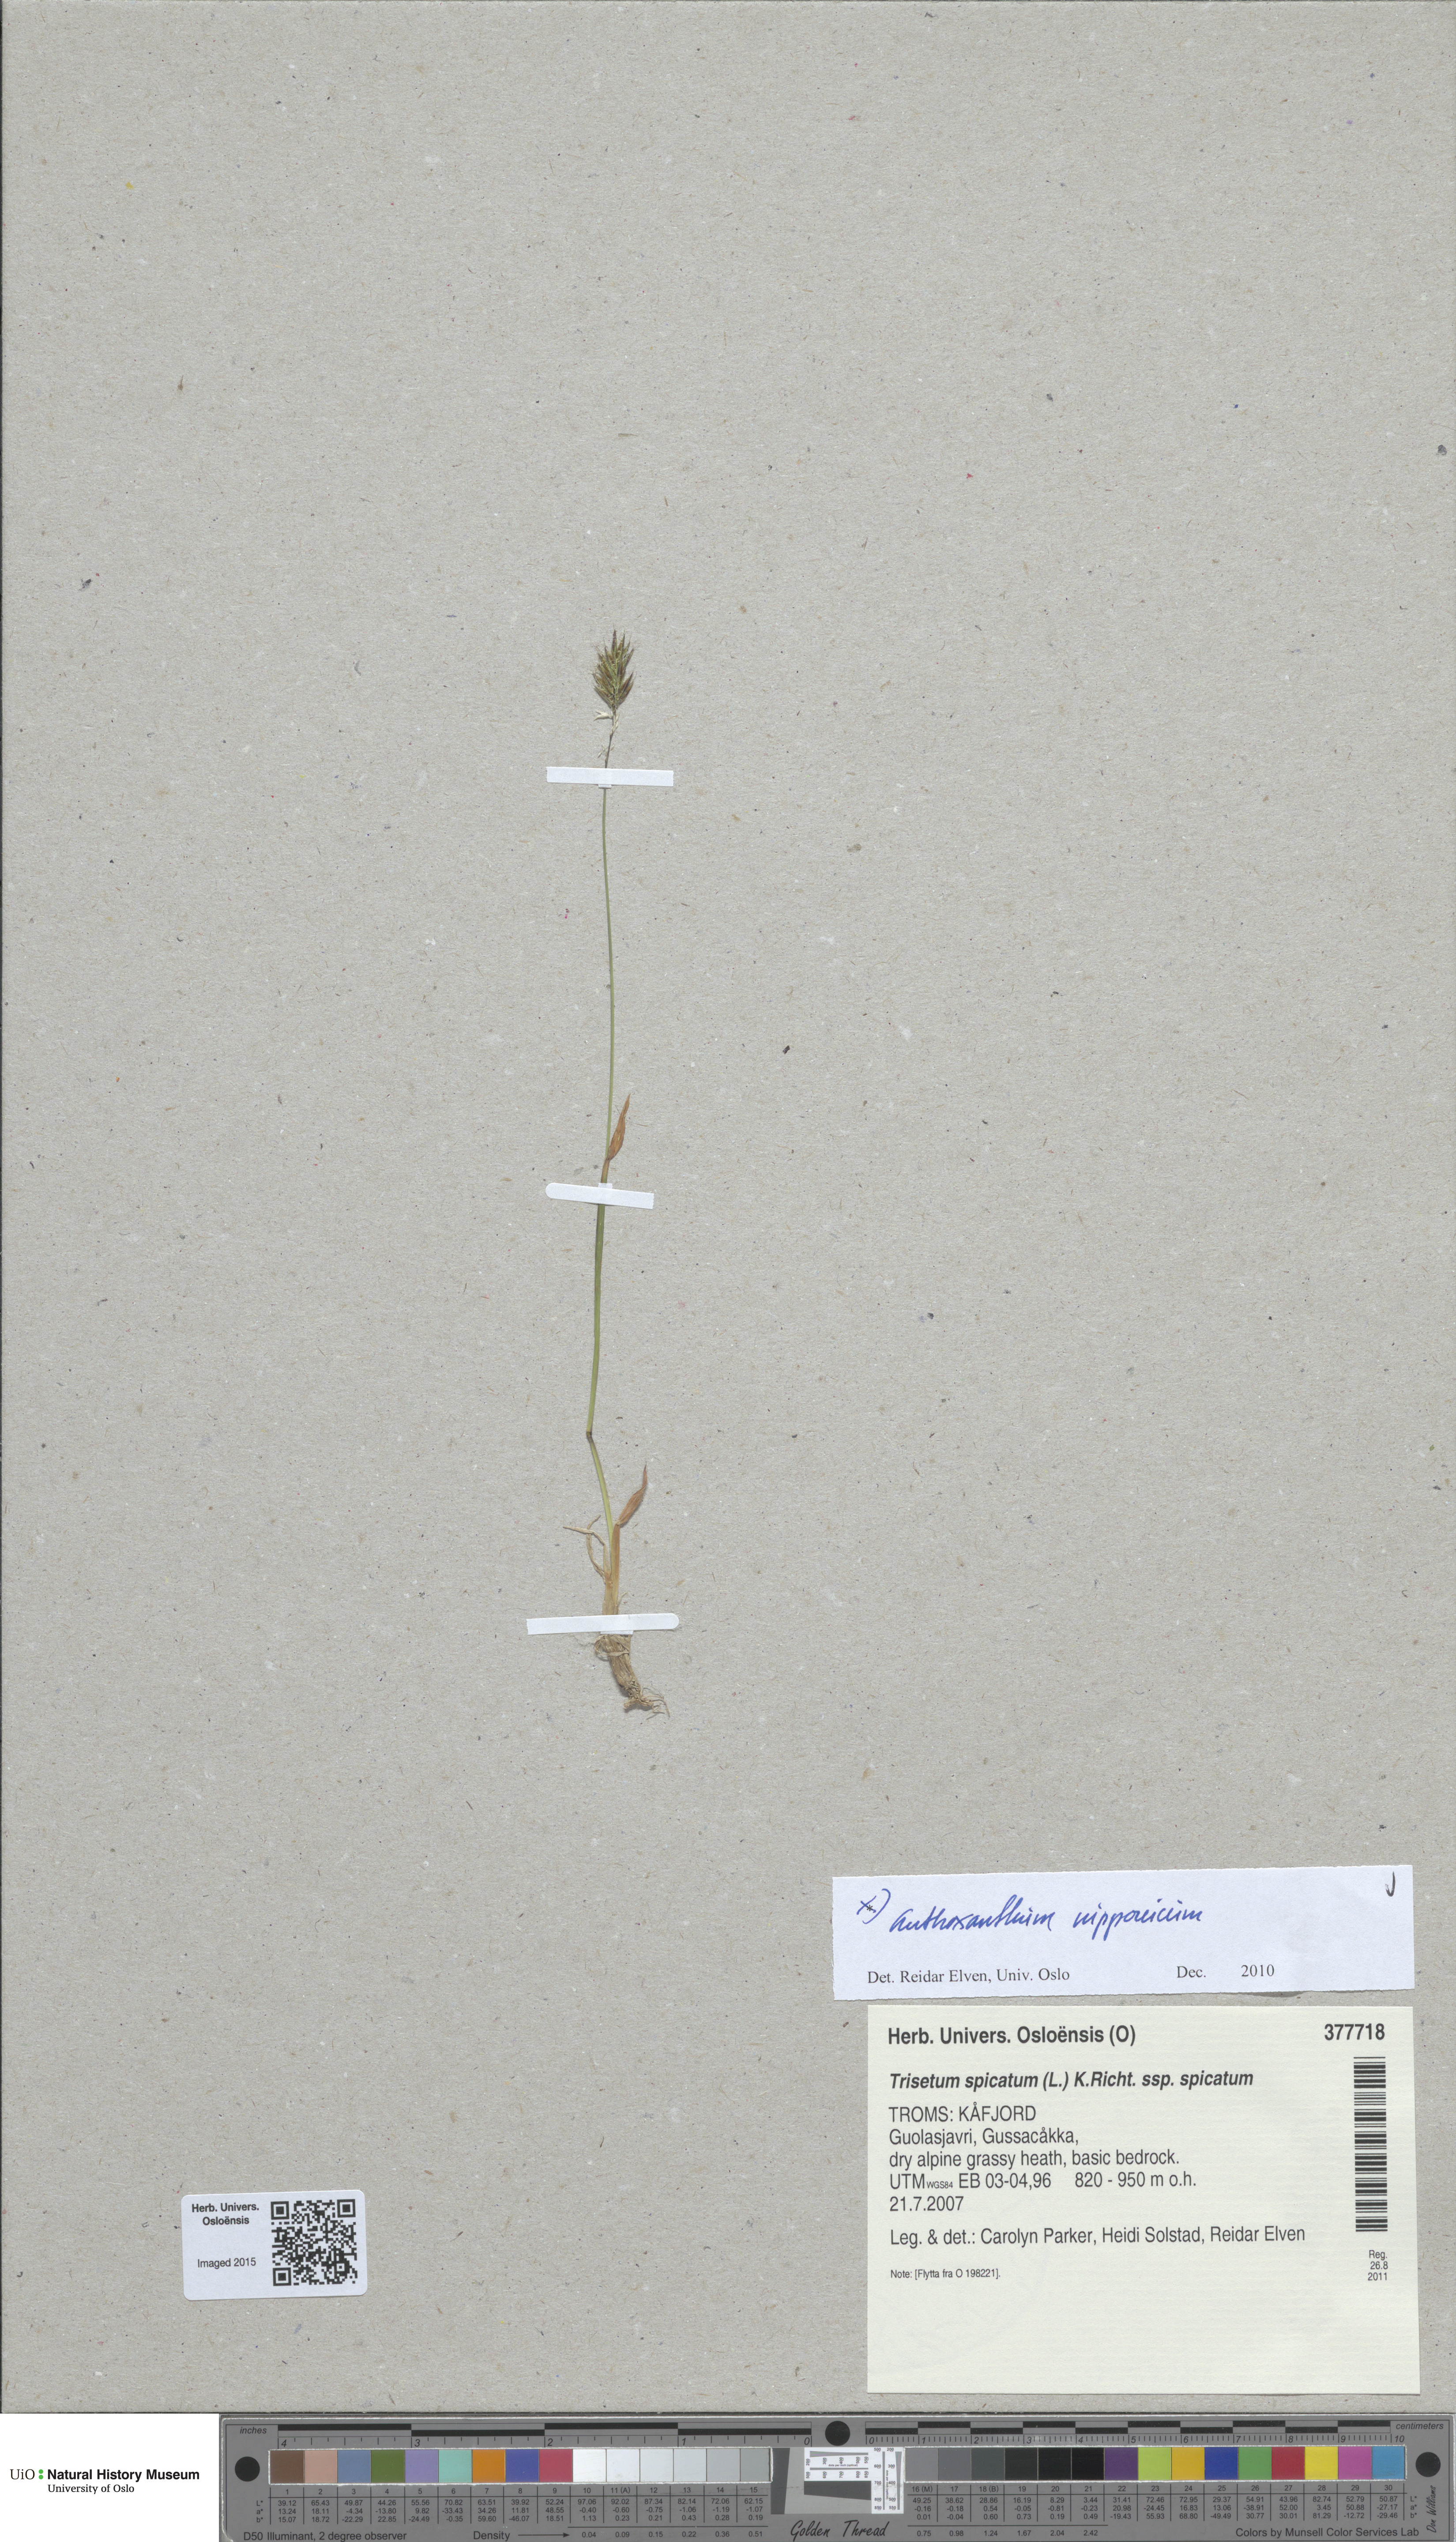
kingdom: Plantae
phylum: Tracheophyta
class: Liliopsida
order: Poales
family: Poaceae
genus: Anthoxanthum
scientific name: Anthoxanthum nipponicum
